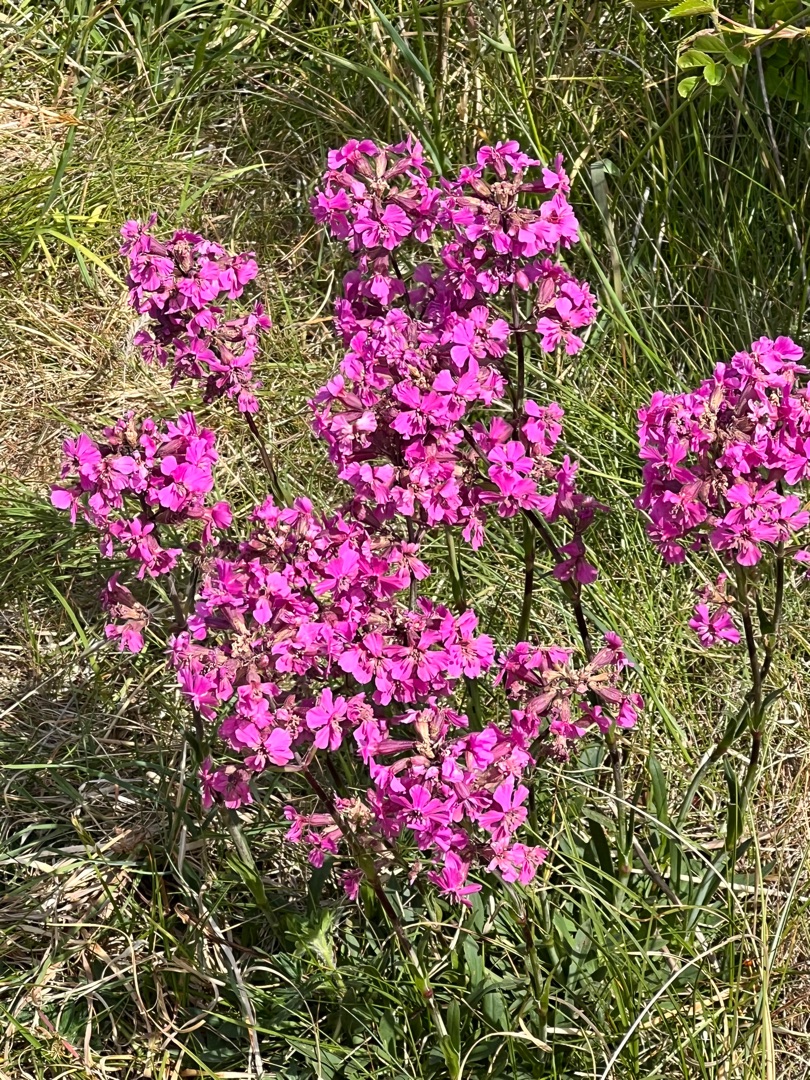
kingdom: Plantae
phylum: Tracheophyta
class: Magnoliopsida
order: Caryophyllales
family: Caryophyllaceae
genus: Viscaria
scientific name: Viscaria vulgaris
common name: Tjærenellike
